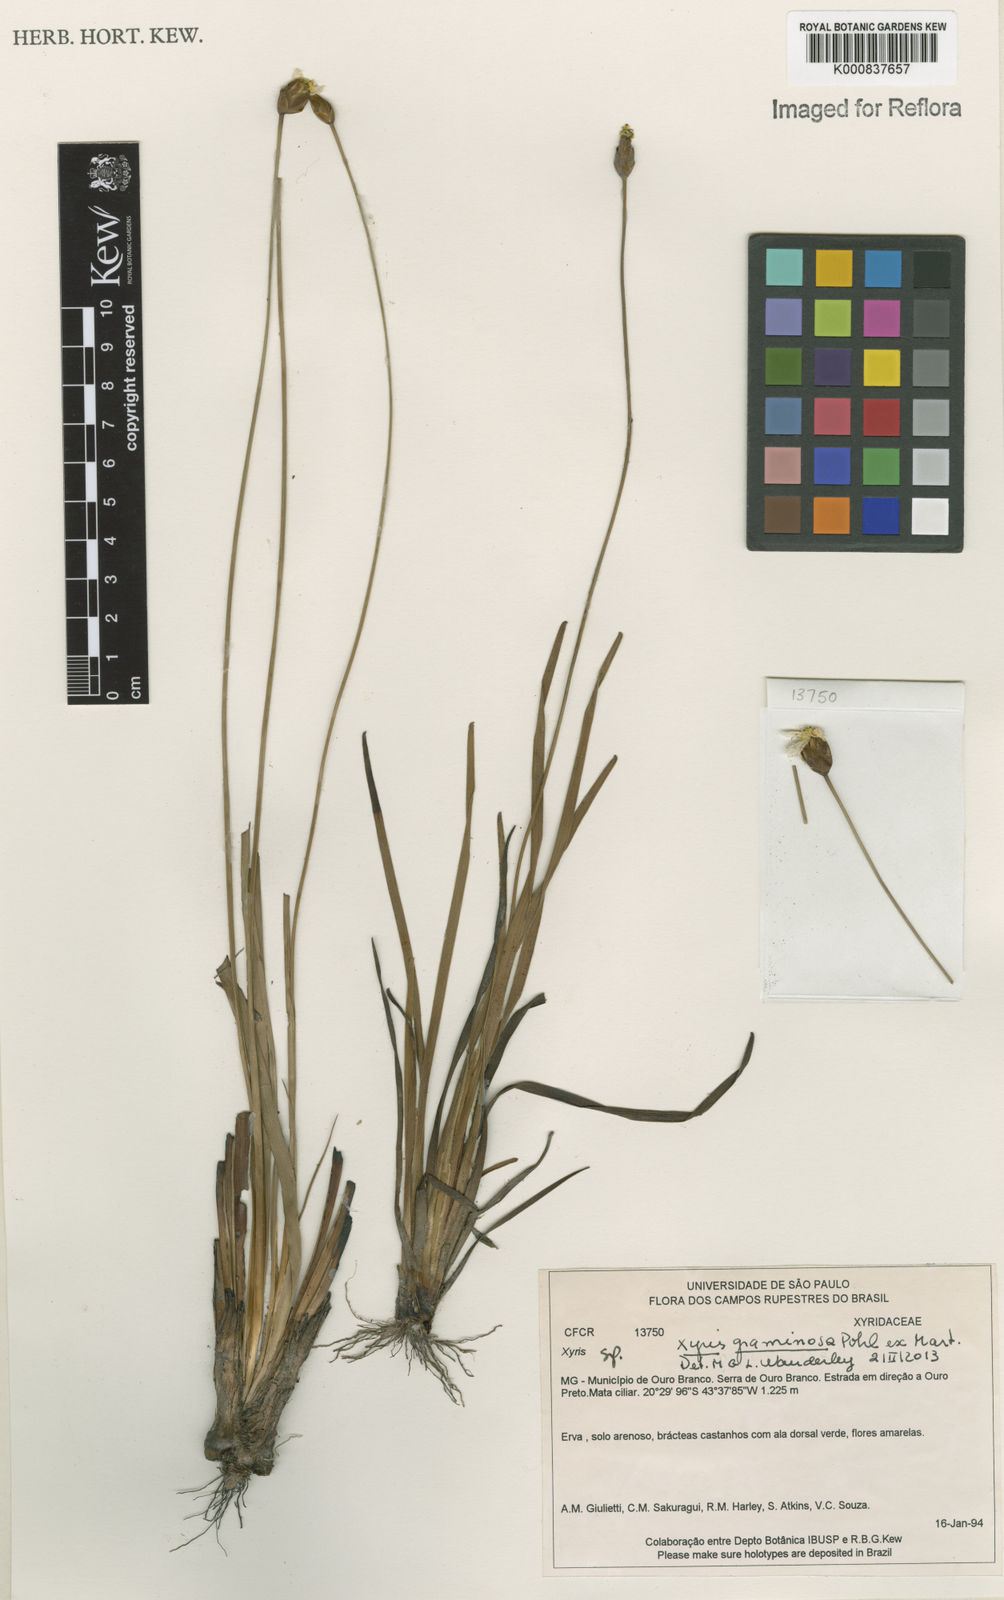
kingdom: Plantae
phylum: Tracheophyta
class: Liliopsida
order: Zingiberales
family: Marantaceae
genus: Calathea
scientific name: Calathea
